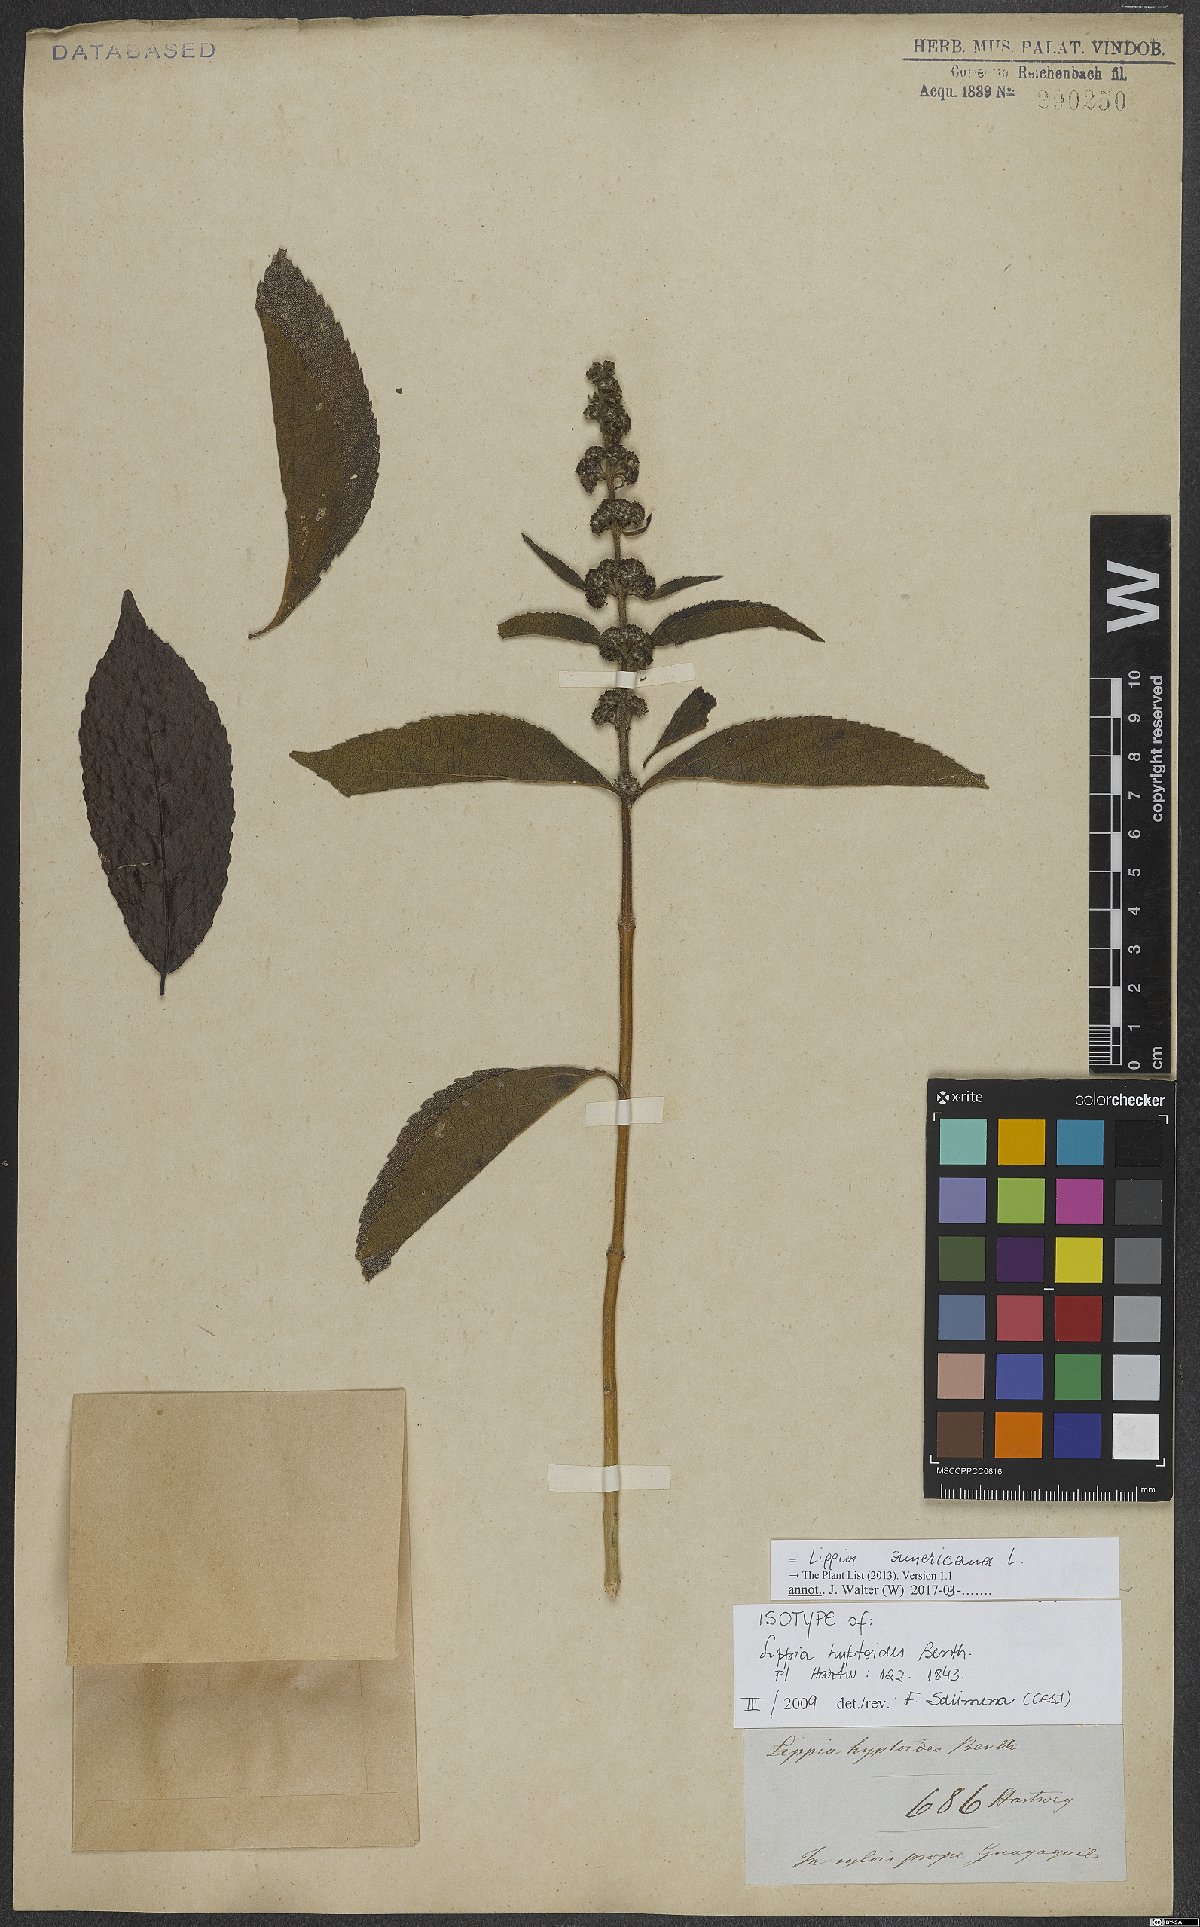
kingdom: Plantae
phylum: Tracheophyta
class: Magnoliopsida
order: Lamiales
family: Verbenaceae
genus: Lippia
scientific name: Lippia americana
